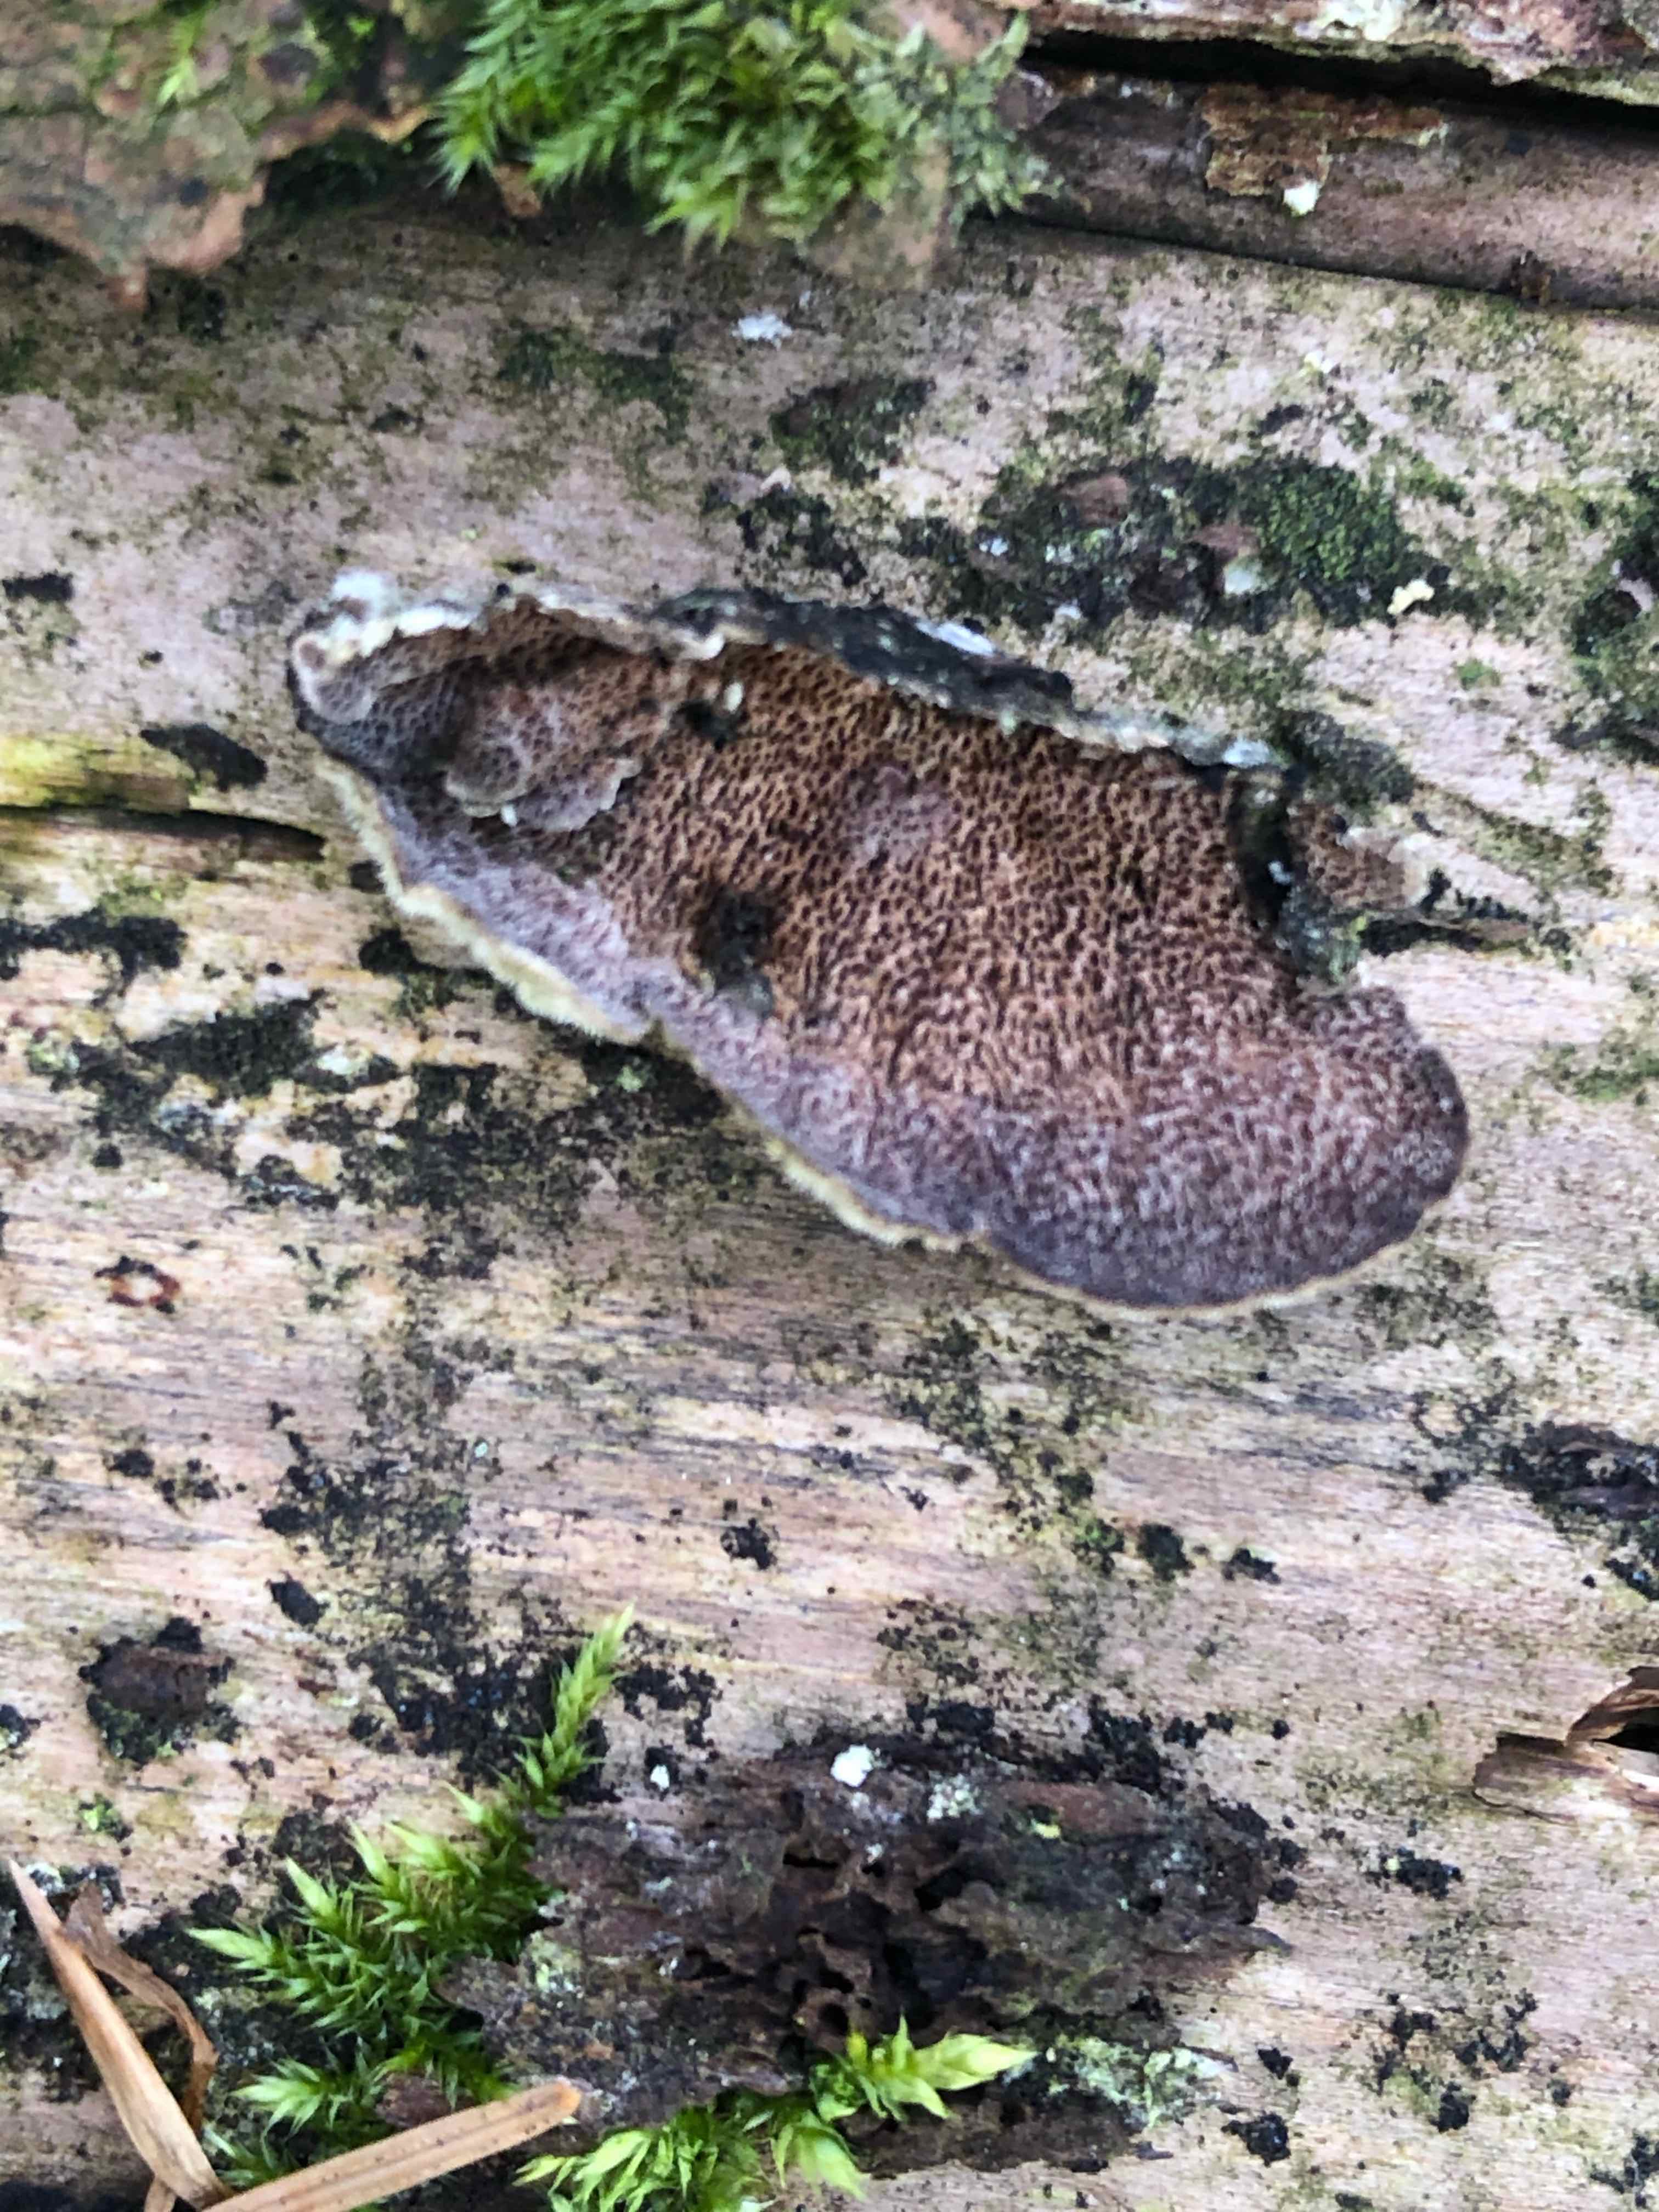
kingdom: Fungi
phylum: Basidiomycota
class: Agaricomycetes
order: Hymenochaetales
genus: Trichaptum
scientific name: Trichaptum abietinum
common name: almindelig violporesvamp
